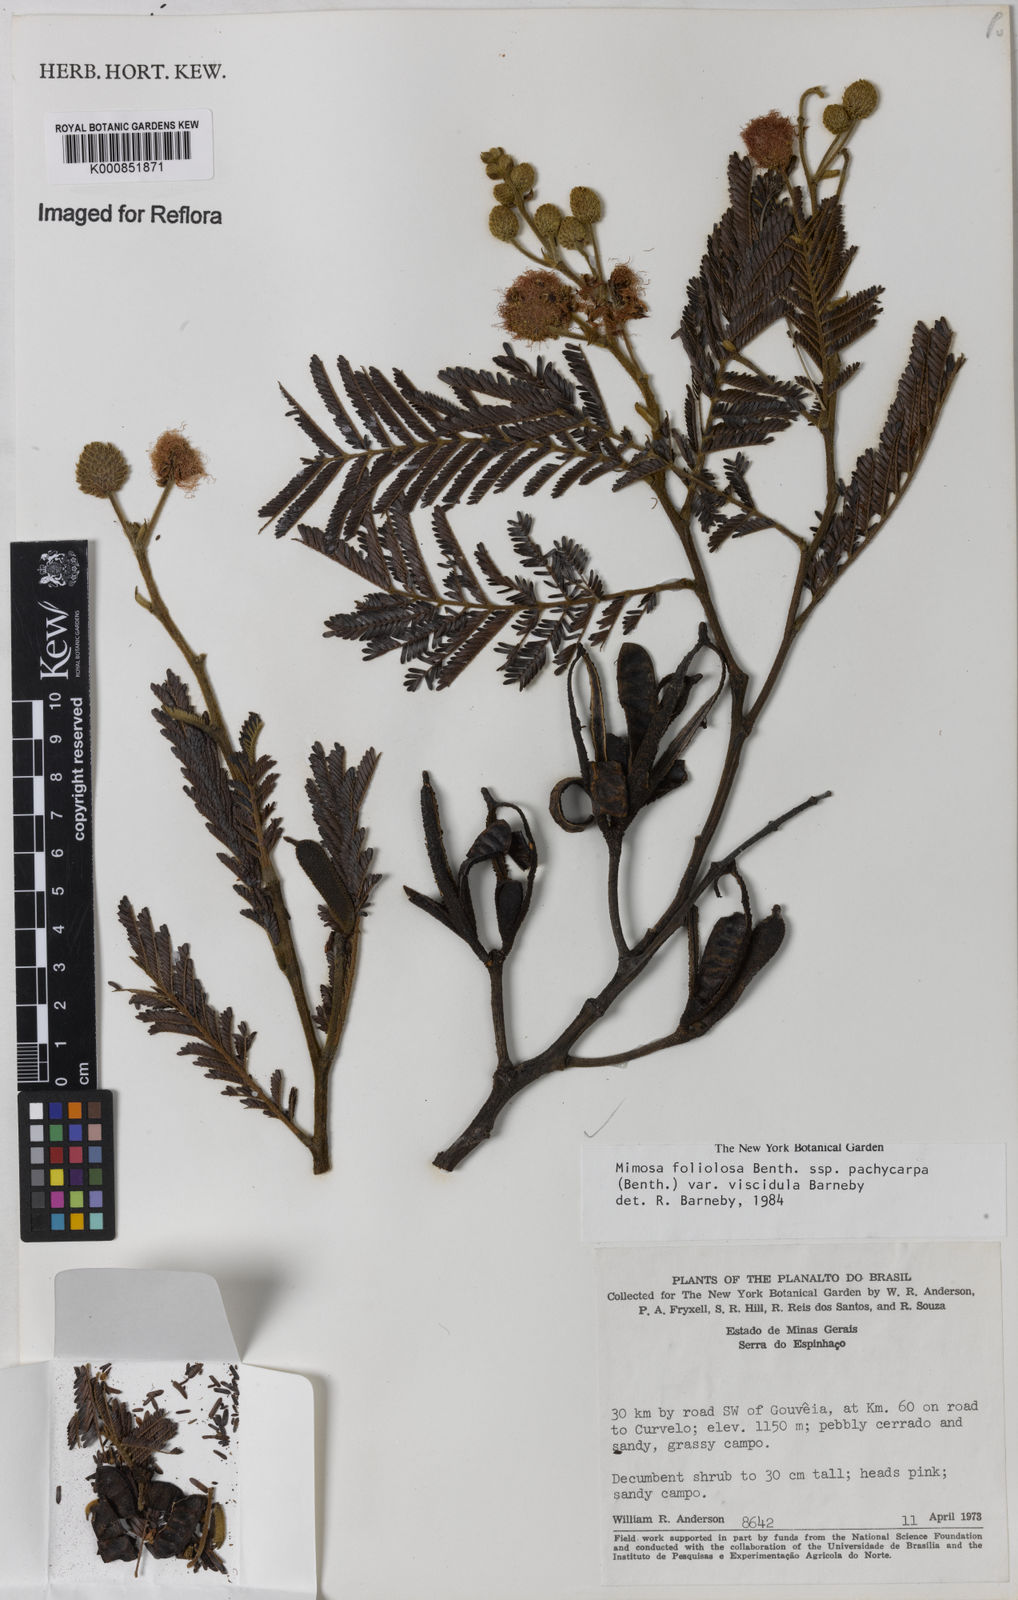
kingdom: Plantae
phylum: Tracheophyta
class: Magnoliopsida
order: Fabales
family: Fabaceae
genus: Mimosa
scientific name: Mimosa foliolosa
